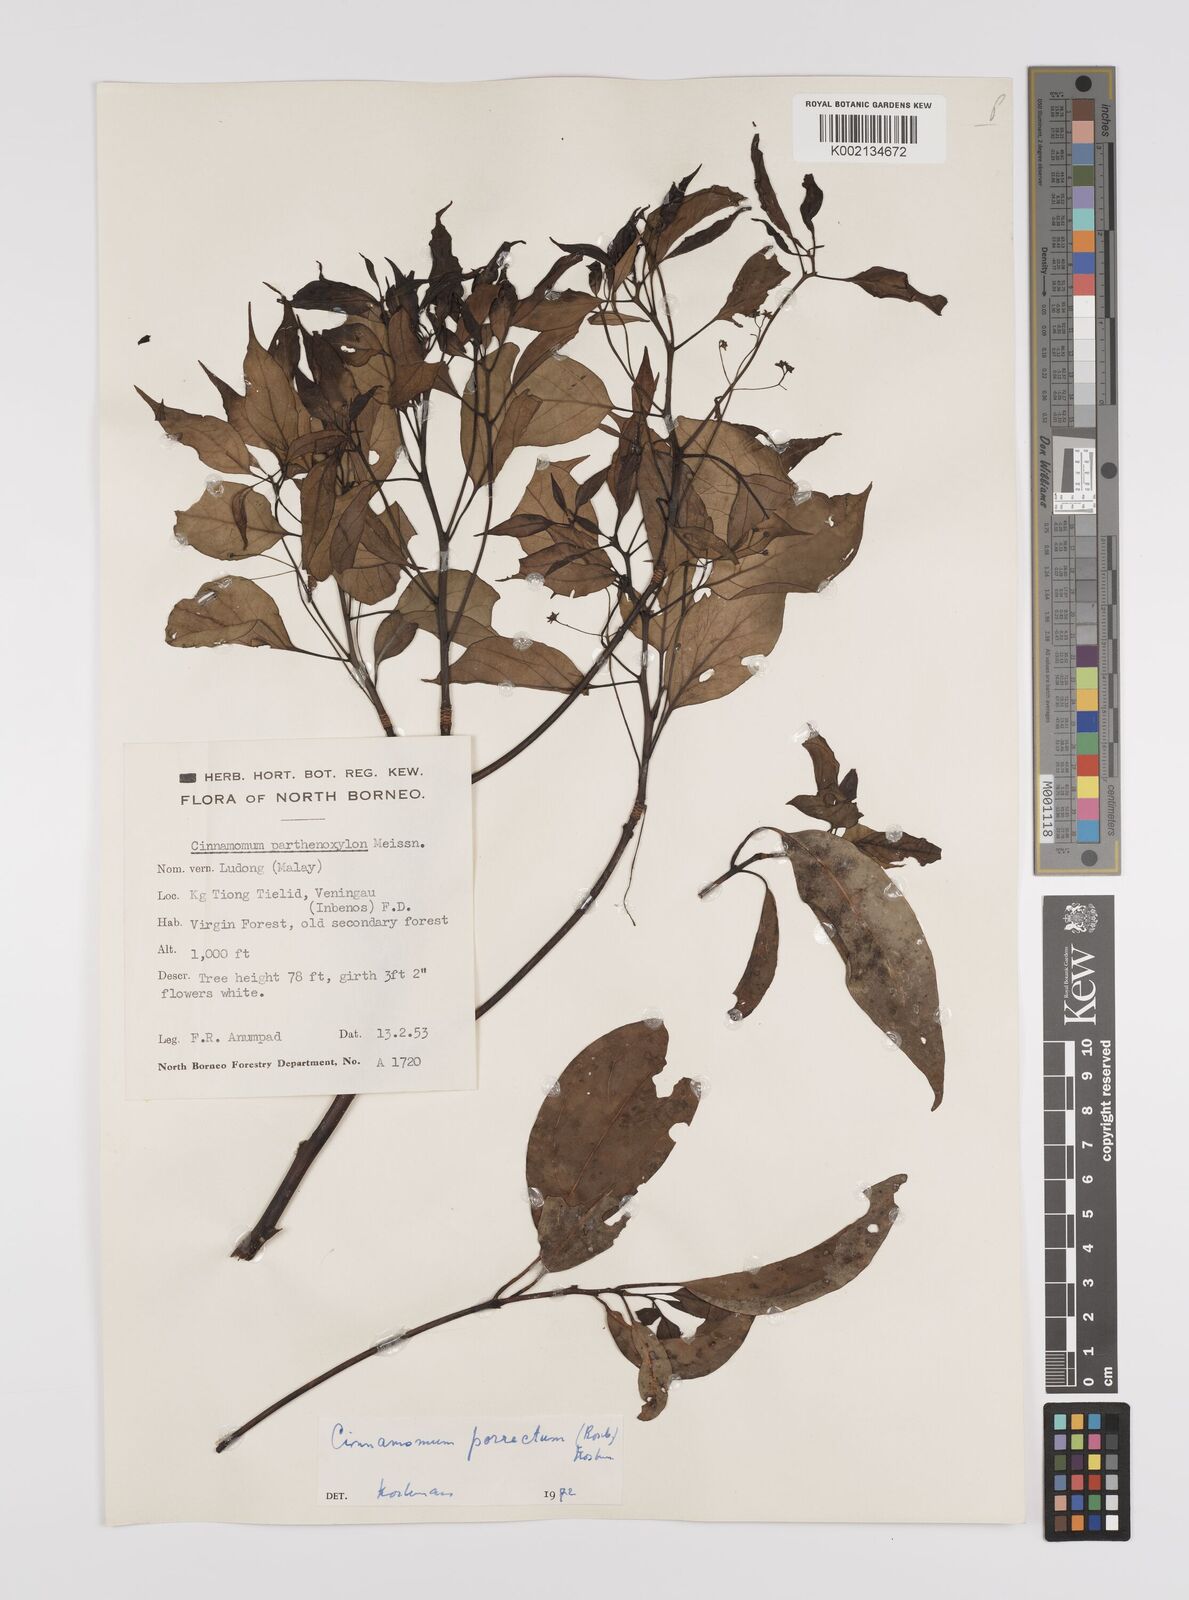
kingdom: Plantae
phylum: Tracheophyta
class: Magnoliopsida
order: Laurales
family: Lauraceae
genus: Cinnamomum
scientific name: Cinnamomum parthenoxylon
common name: Martaban camphor wood
